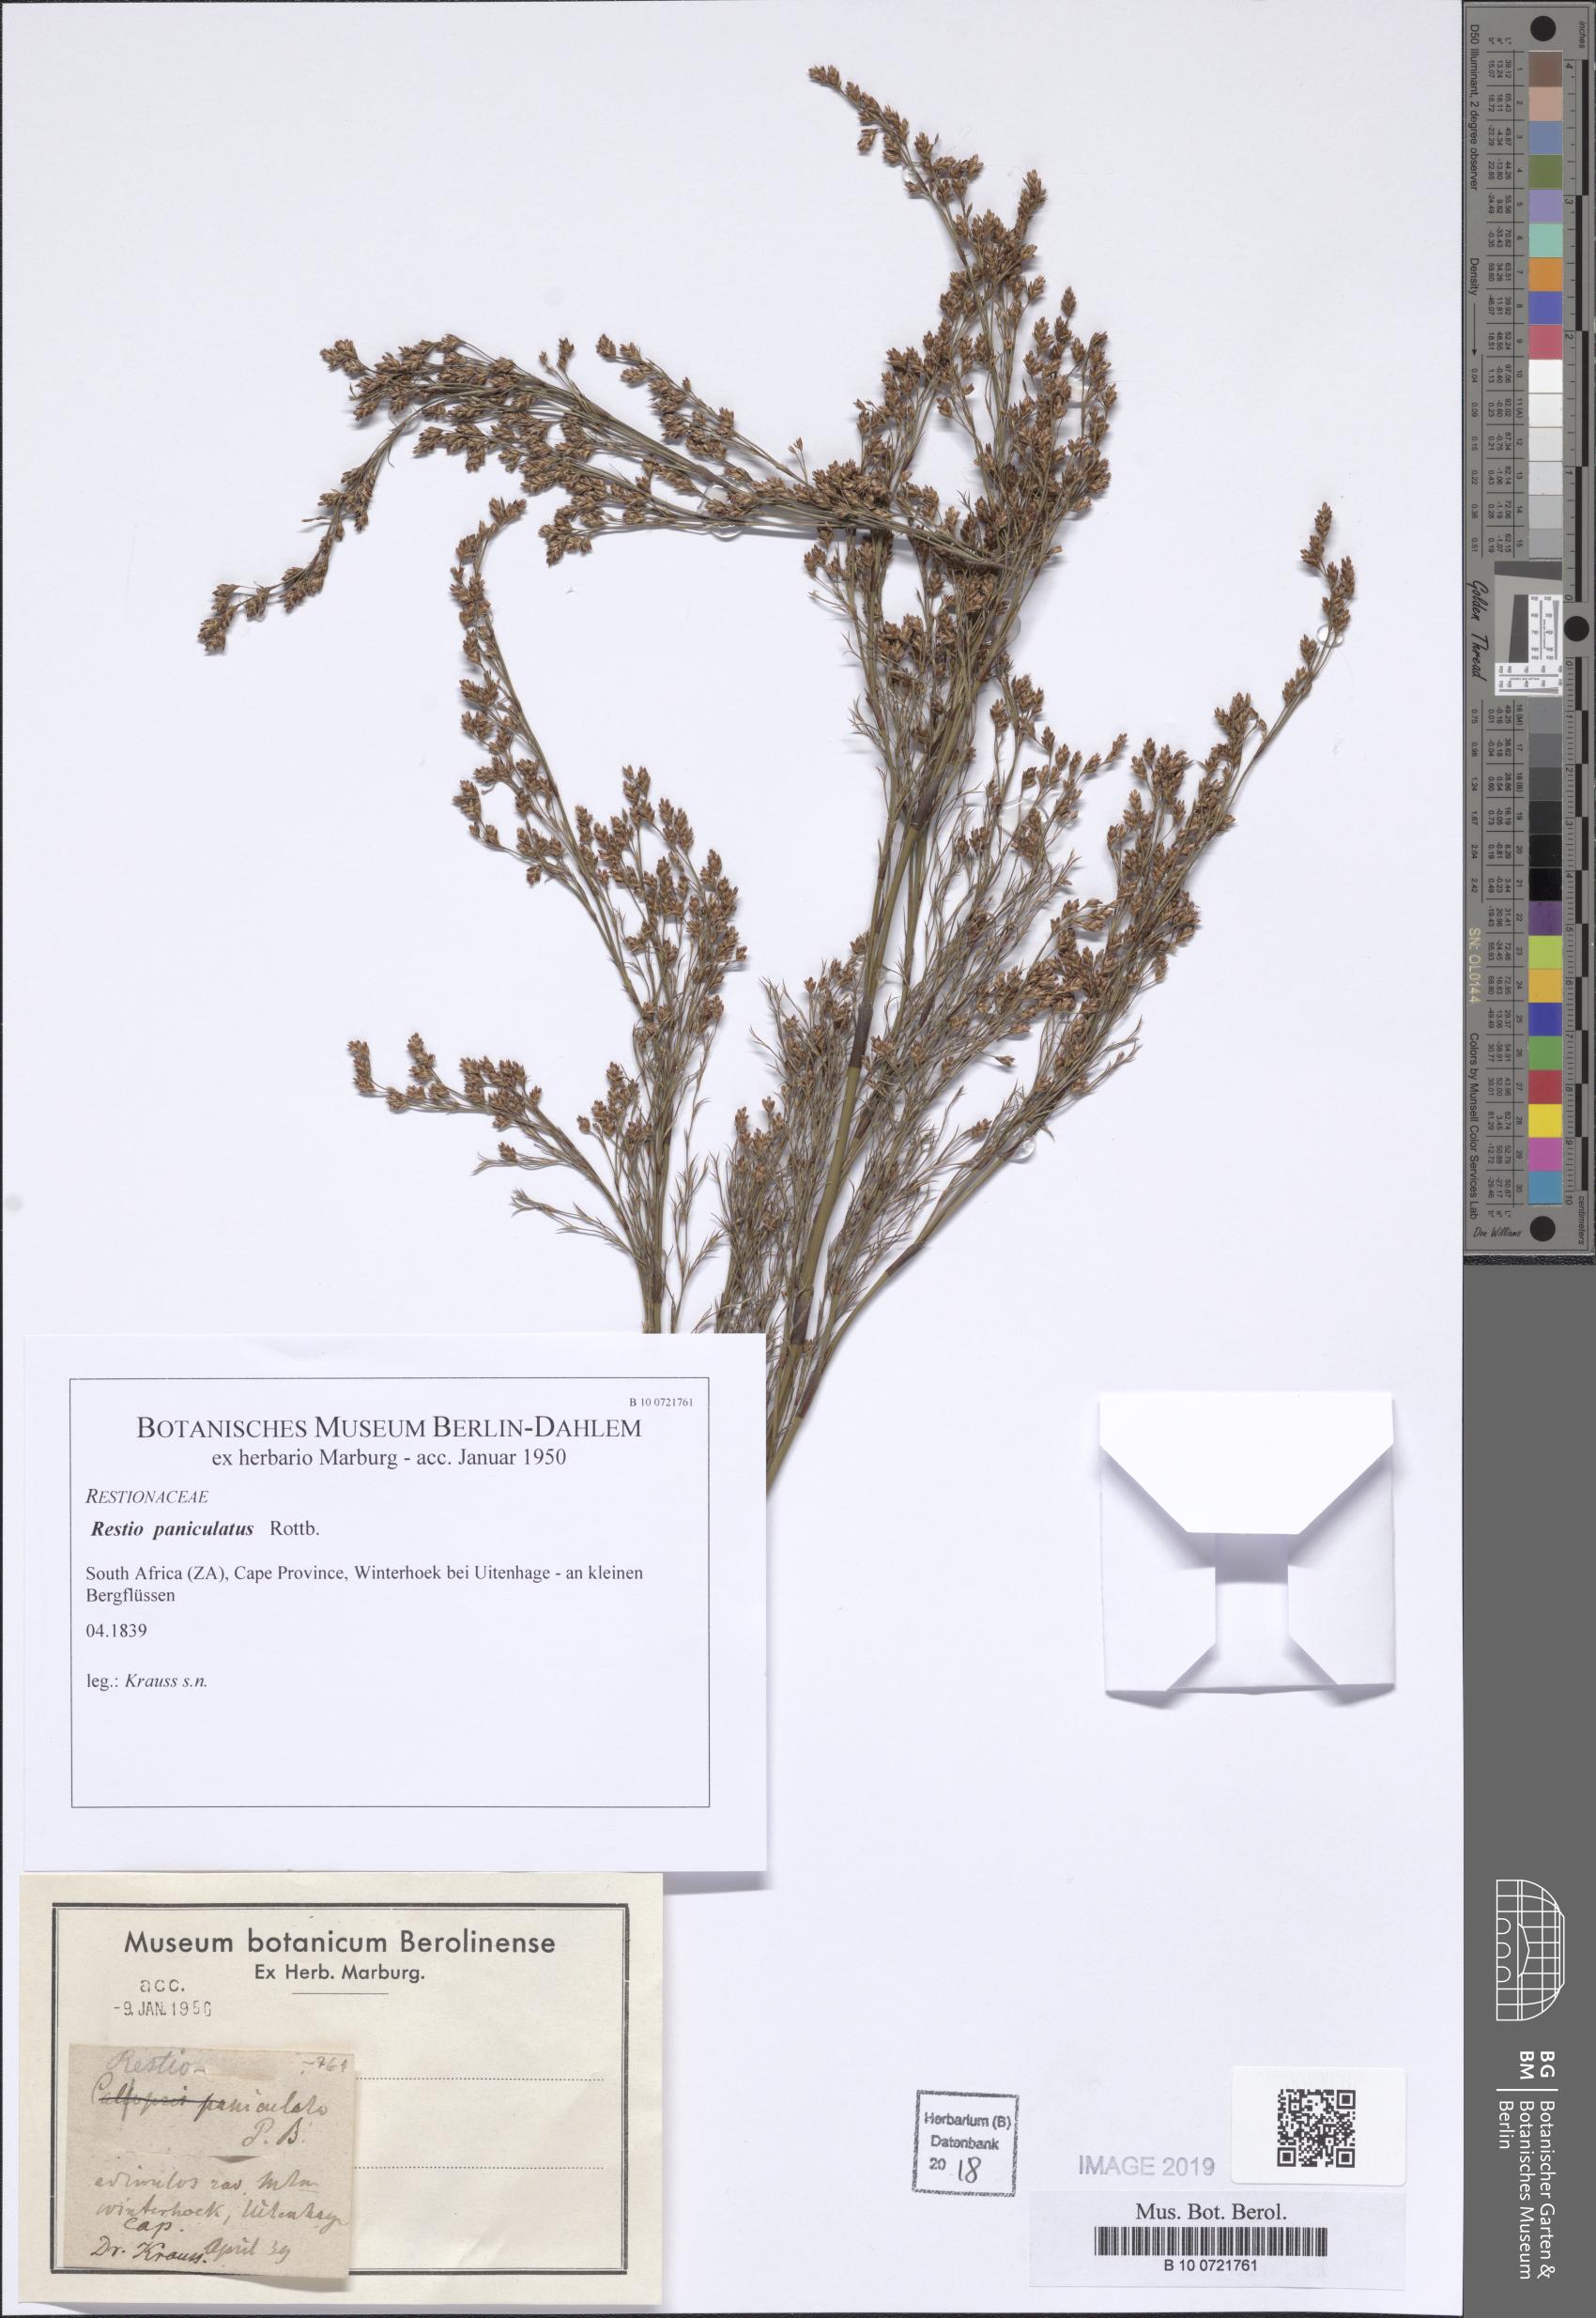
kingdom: Plantae
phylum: Tracheophyta
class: Liliopsida
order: Poales
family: Restionaceae
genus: Restio
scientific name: Restio paniculatus
